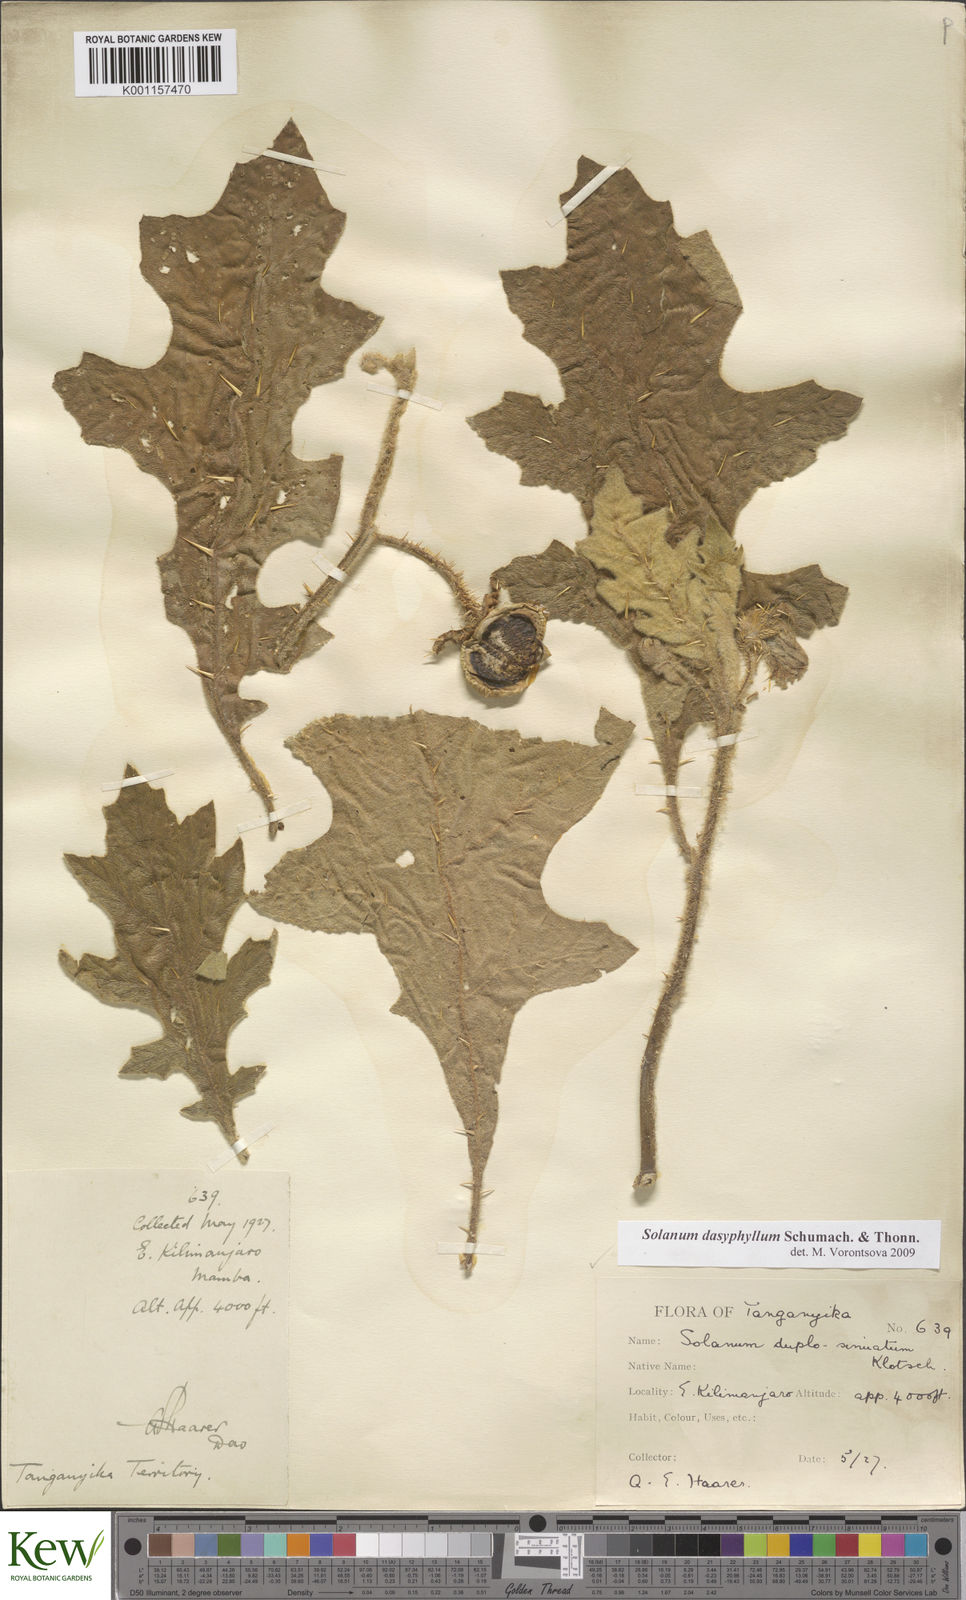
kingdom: Plantae
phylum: Tracheophyta
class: Magnoliopsida
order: Solanales
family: Solanaceae
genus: Solanum
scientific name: Solanum dasyphyllum
